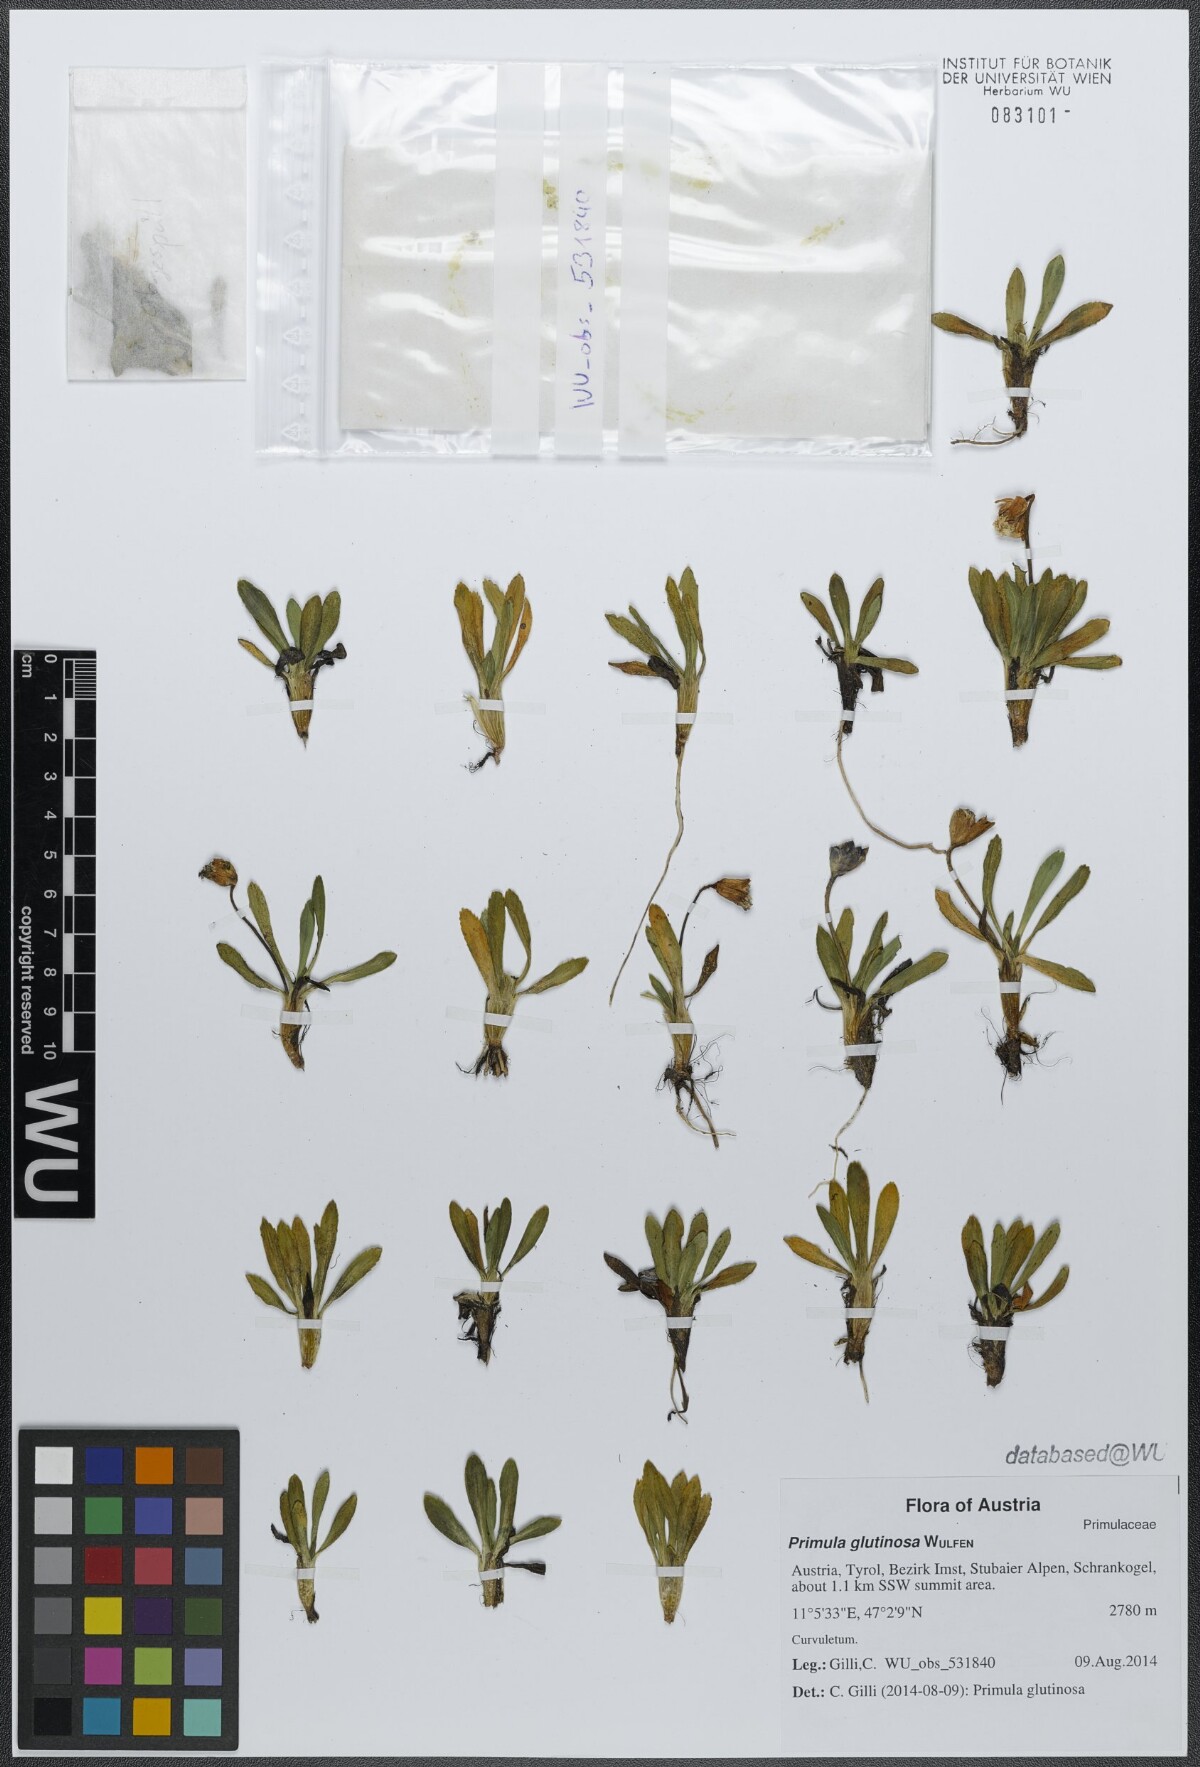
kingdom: Plantae
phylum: Tracheophyta
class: Magnoliopsida
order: Ericales
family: Primulaceae
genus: Primula
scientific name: Primula glutinosa
